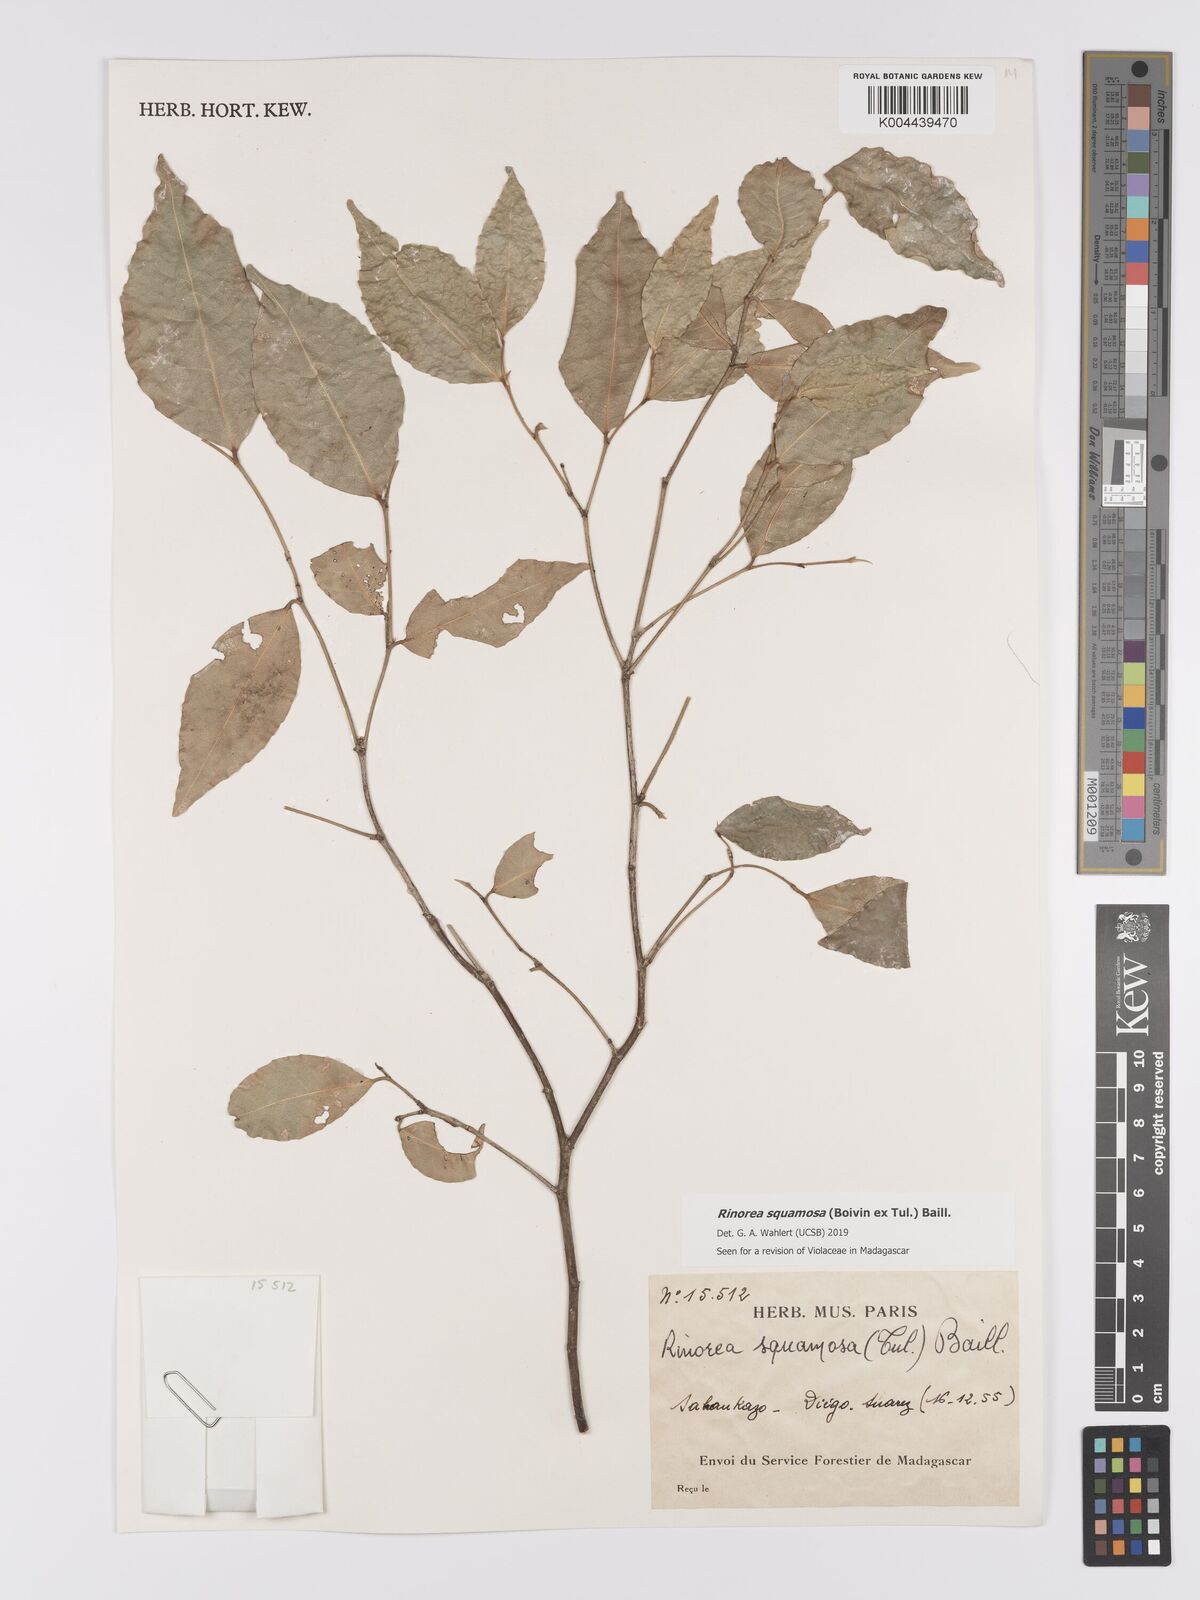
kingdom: Plantae
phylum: Tracheophyta
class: Magnoliopsida
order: Malpighiales
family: Violaceae
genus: Rinorea
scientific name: Rinorea squamosa
